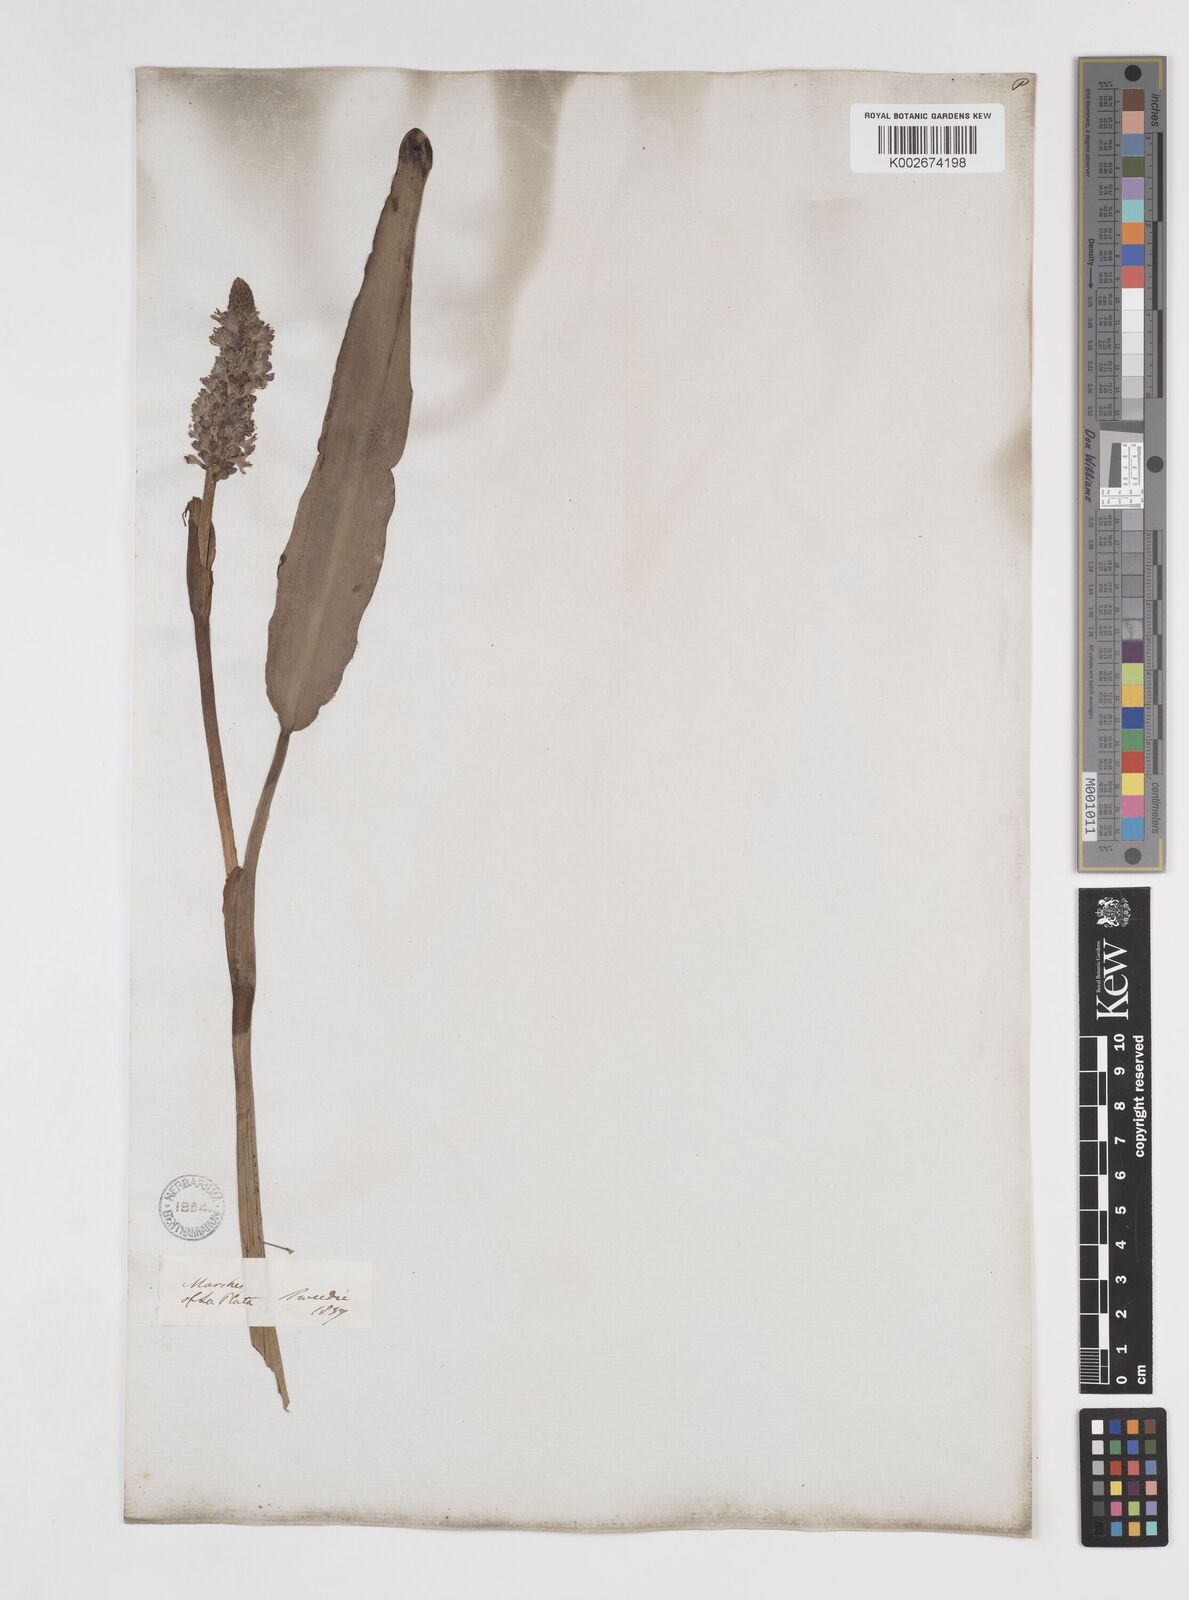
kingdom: Plantae
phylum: Tracheophyta
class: Liliopsida
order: Commelinales
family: Pontederiaceae
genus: Pontederia
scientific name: Pontederia
